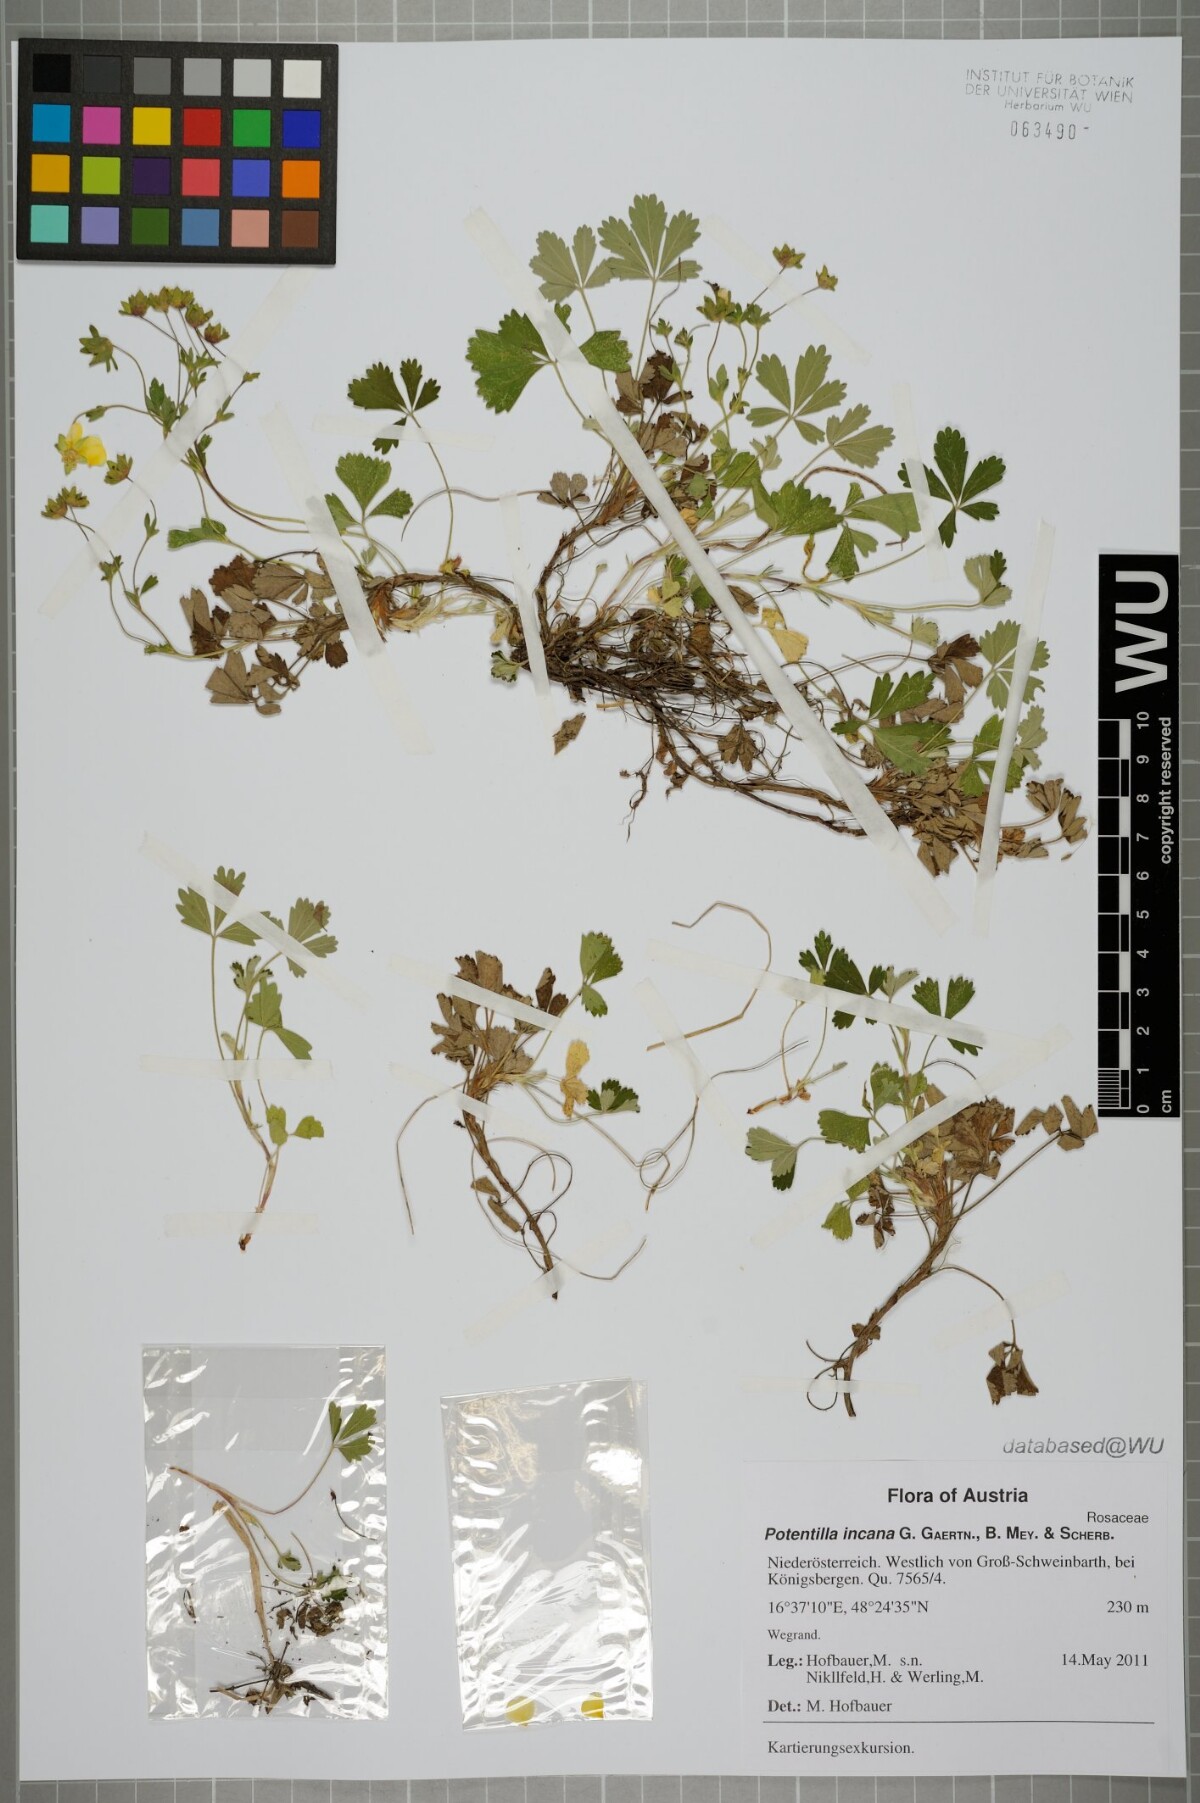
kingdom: Plantae
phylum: Tracheophyta
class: Magnoliopsida
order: Rosales
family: Rosaceae
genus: Potentilla
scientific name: Potentilla cinerea
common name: Ashy cinquefoil
